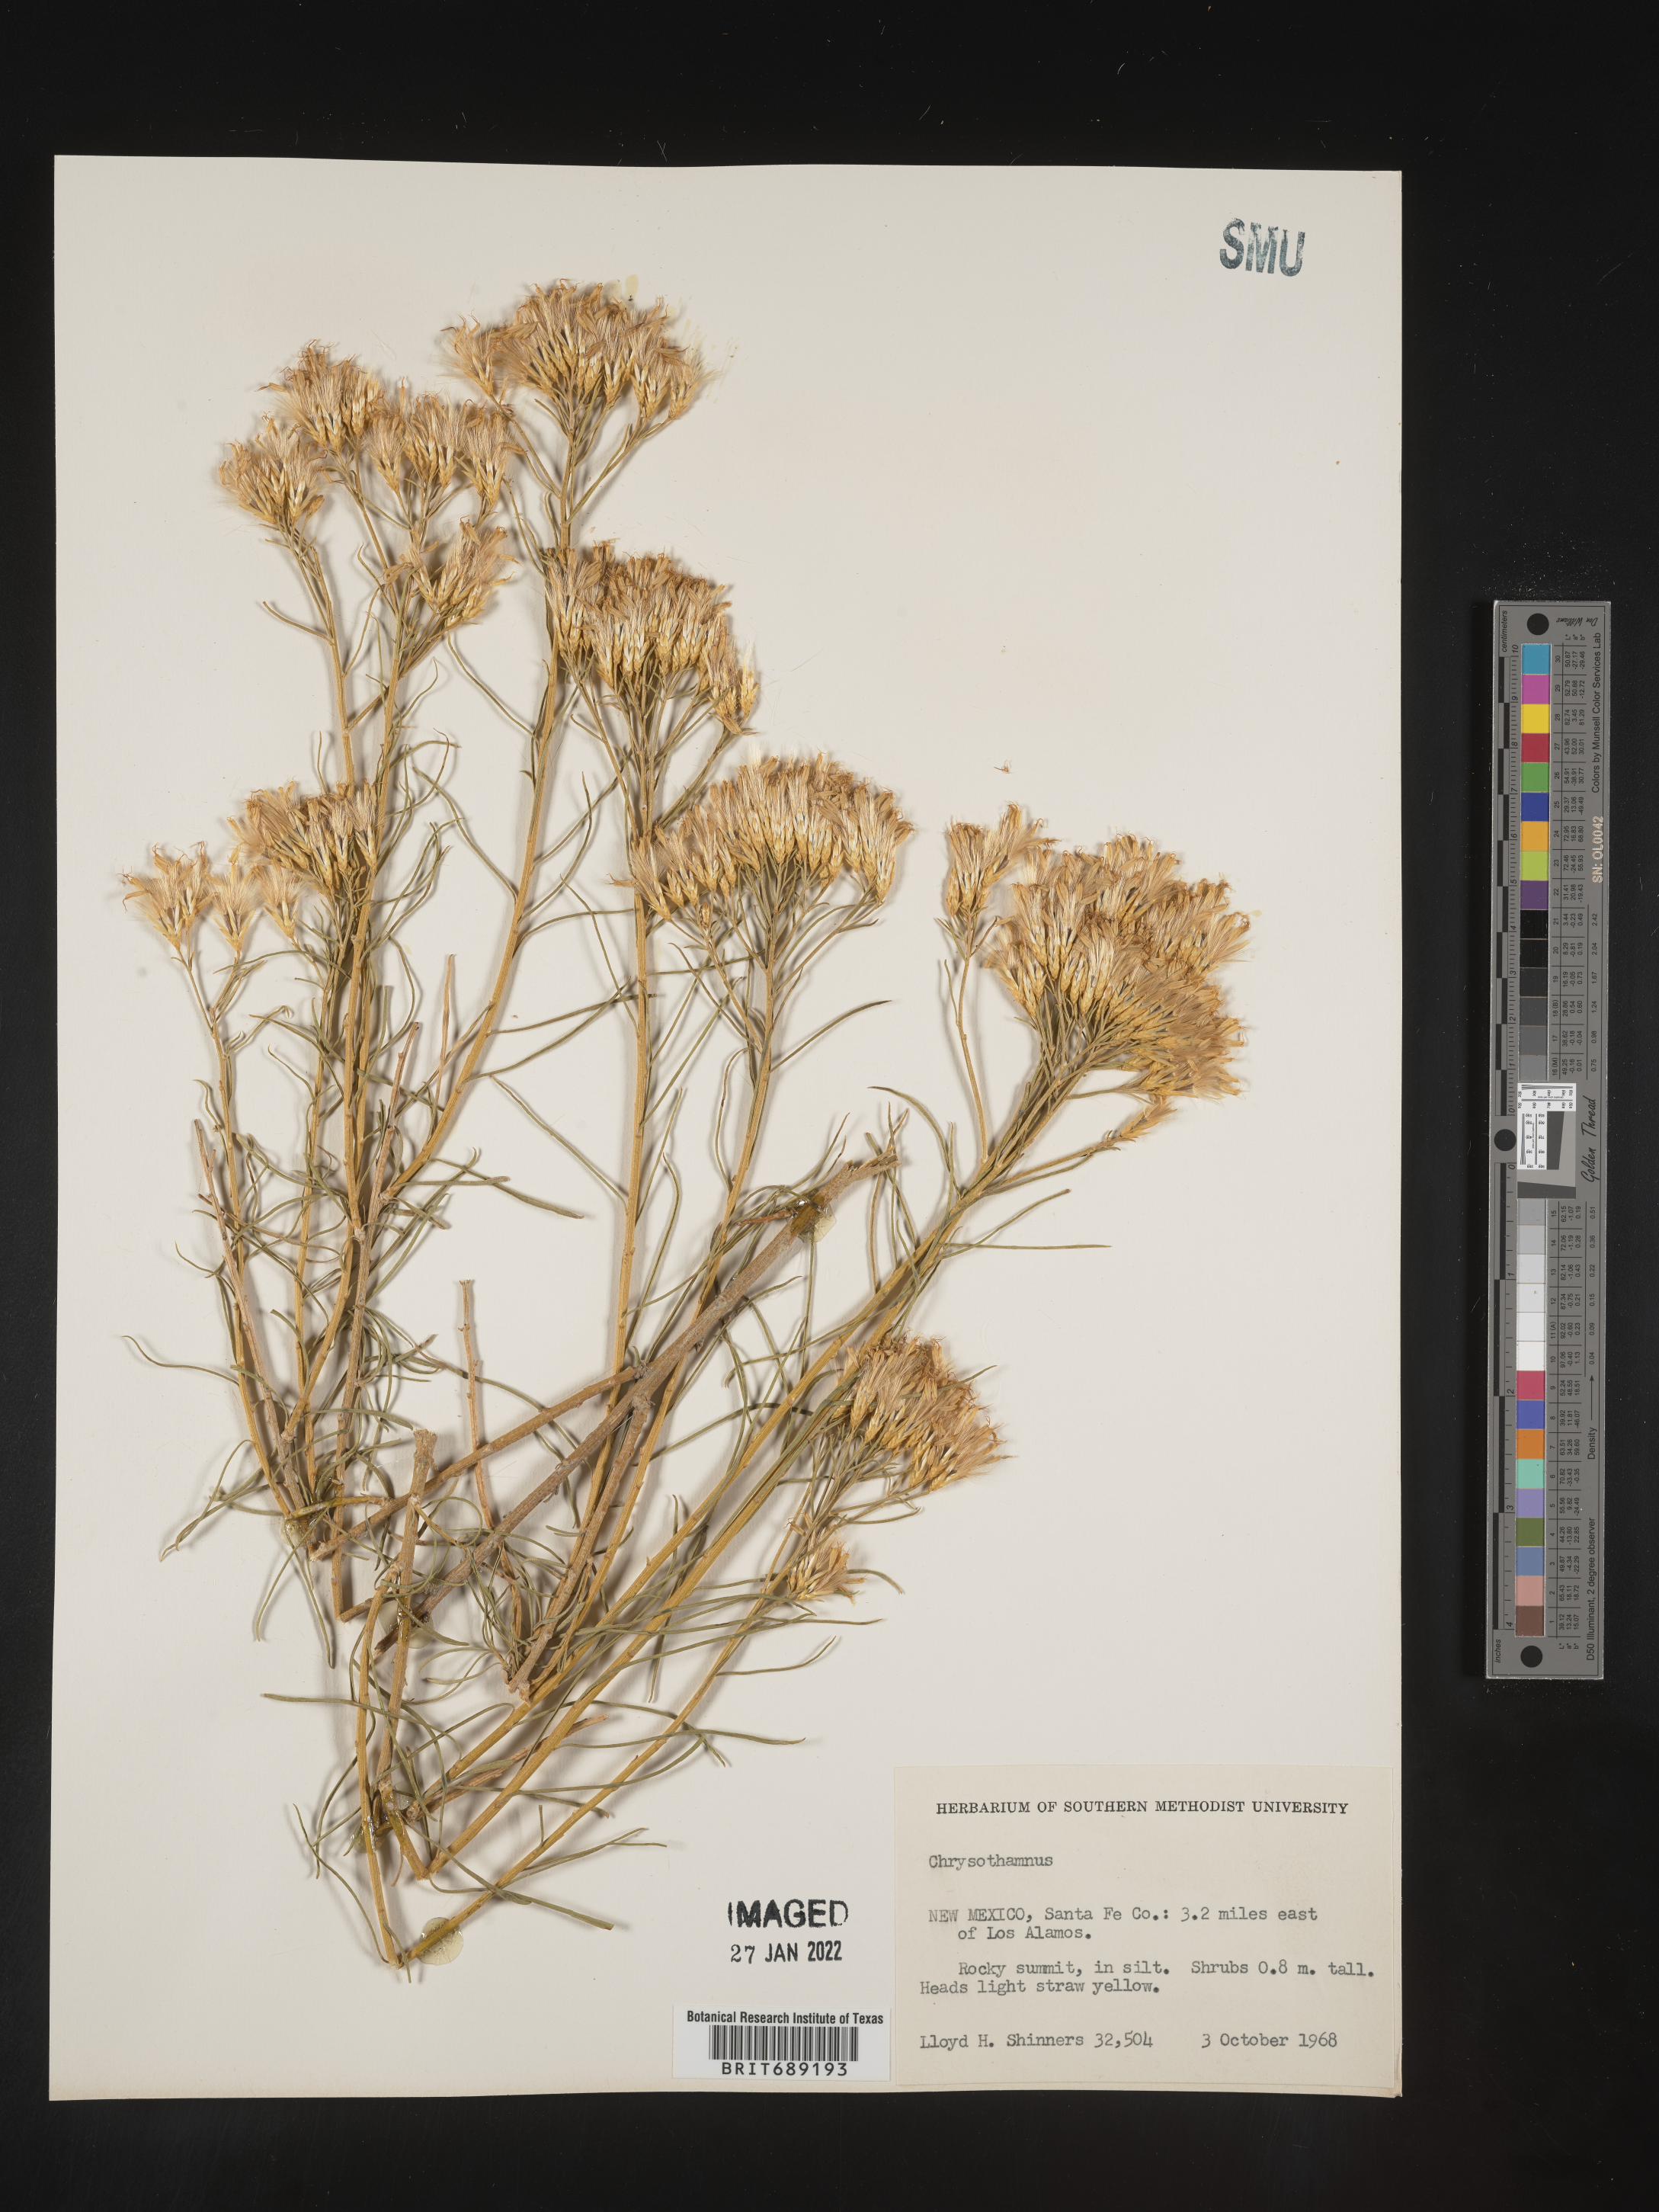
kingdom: Plantae
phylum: Tracheophyta
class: Magnoliopsida
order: Asterales
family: Asteraceae
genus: Chrysothamnus
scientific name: Chrysothamnus
